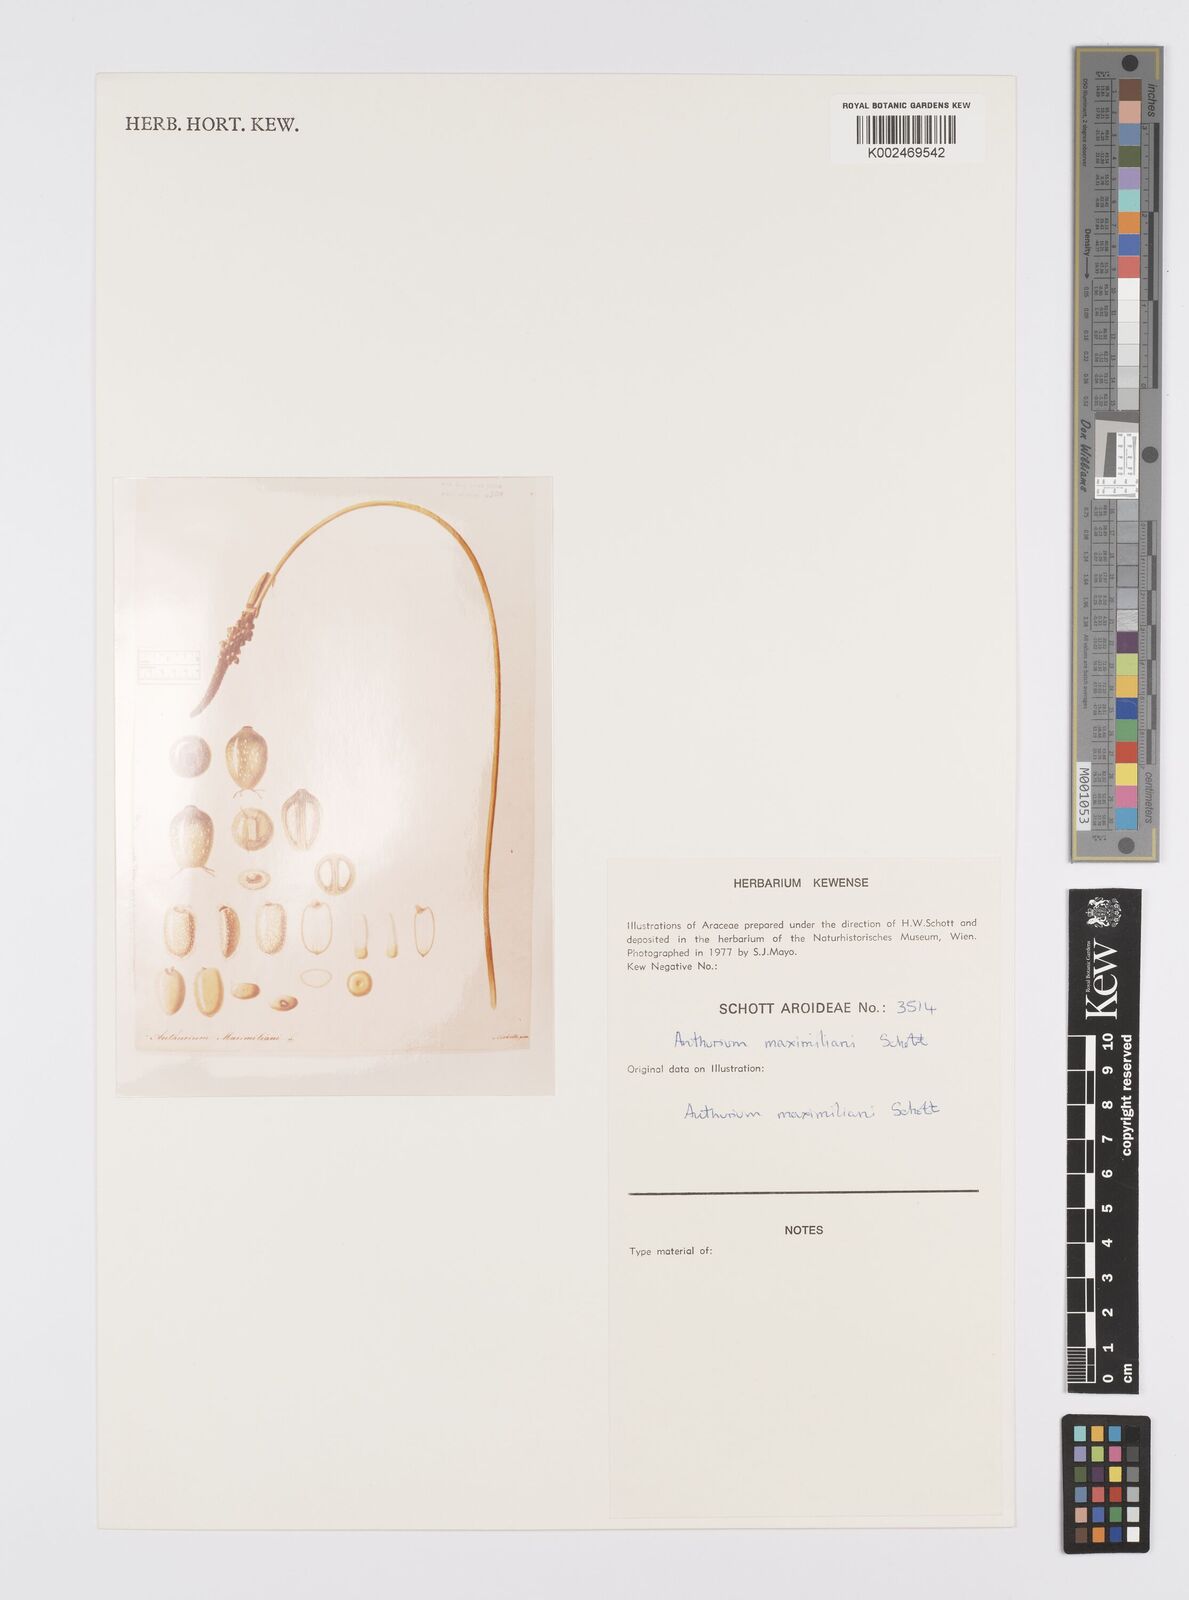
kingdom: Plantae
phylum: Tracheophyta
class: Liliopsida
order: Alismatales
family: Araceae
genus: Anthurium
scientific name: Anthurium augustinum
